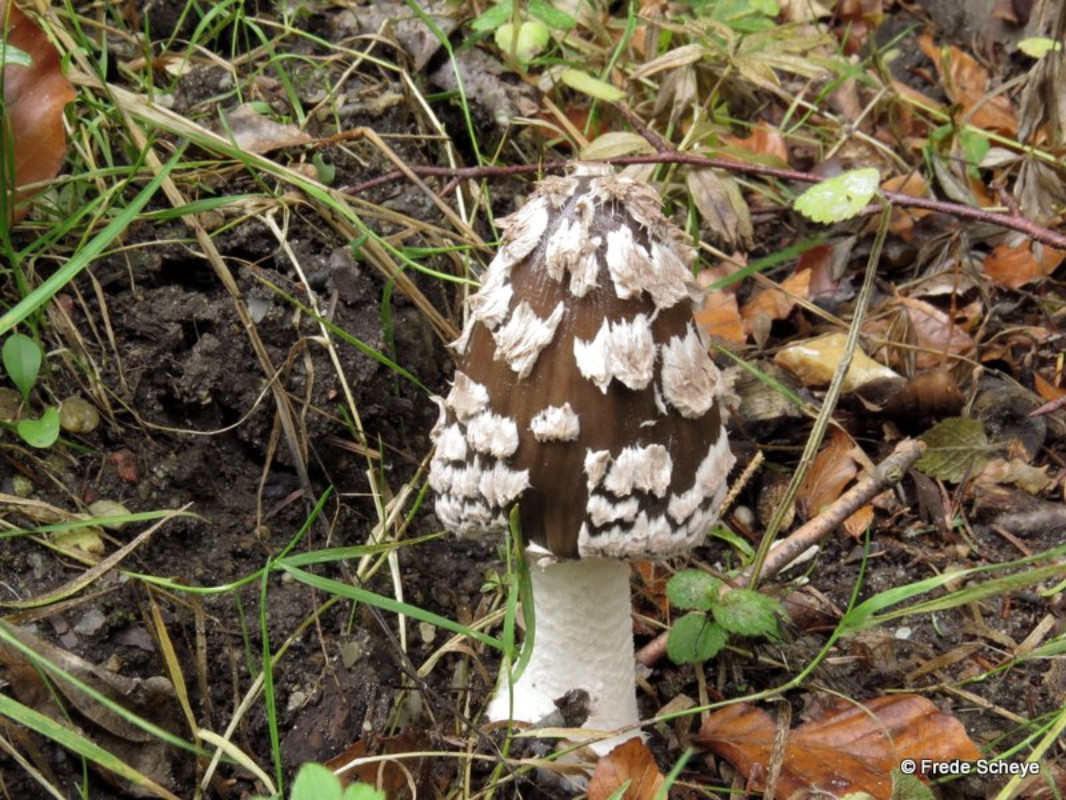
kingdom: Fungi
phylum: Basidiomycota
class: Agaricomycetes
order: Agaricales
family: Psathyrellaceae
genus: Coprinopsis
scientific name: Coprinopsis picacea
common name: skade-blækhat
